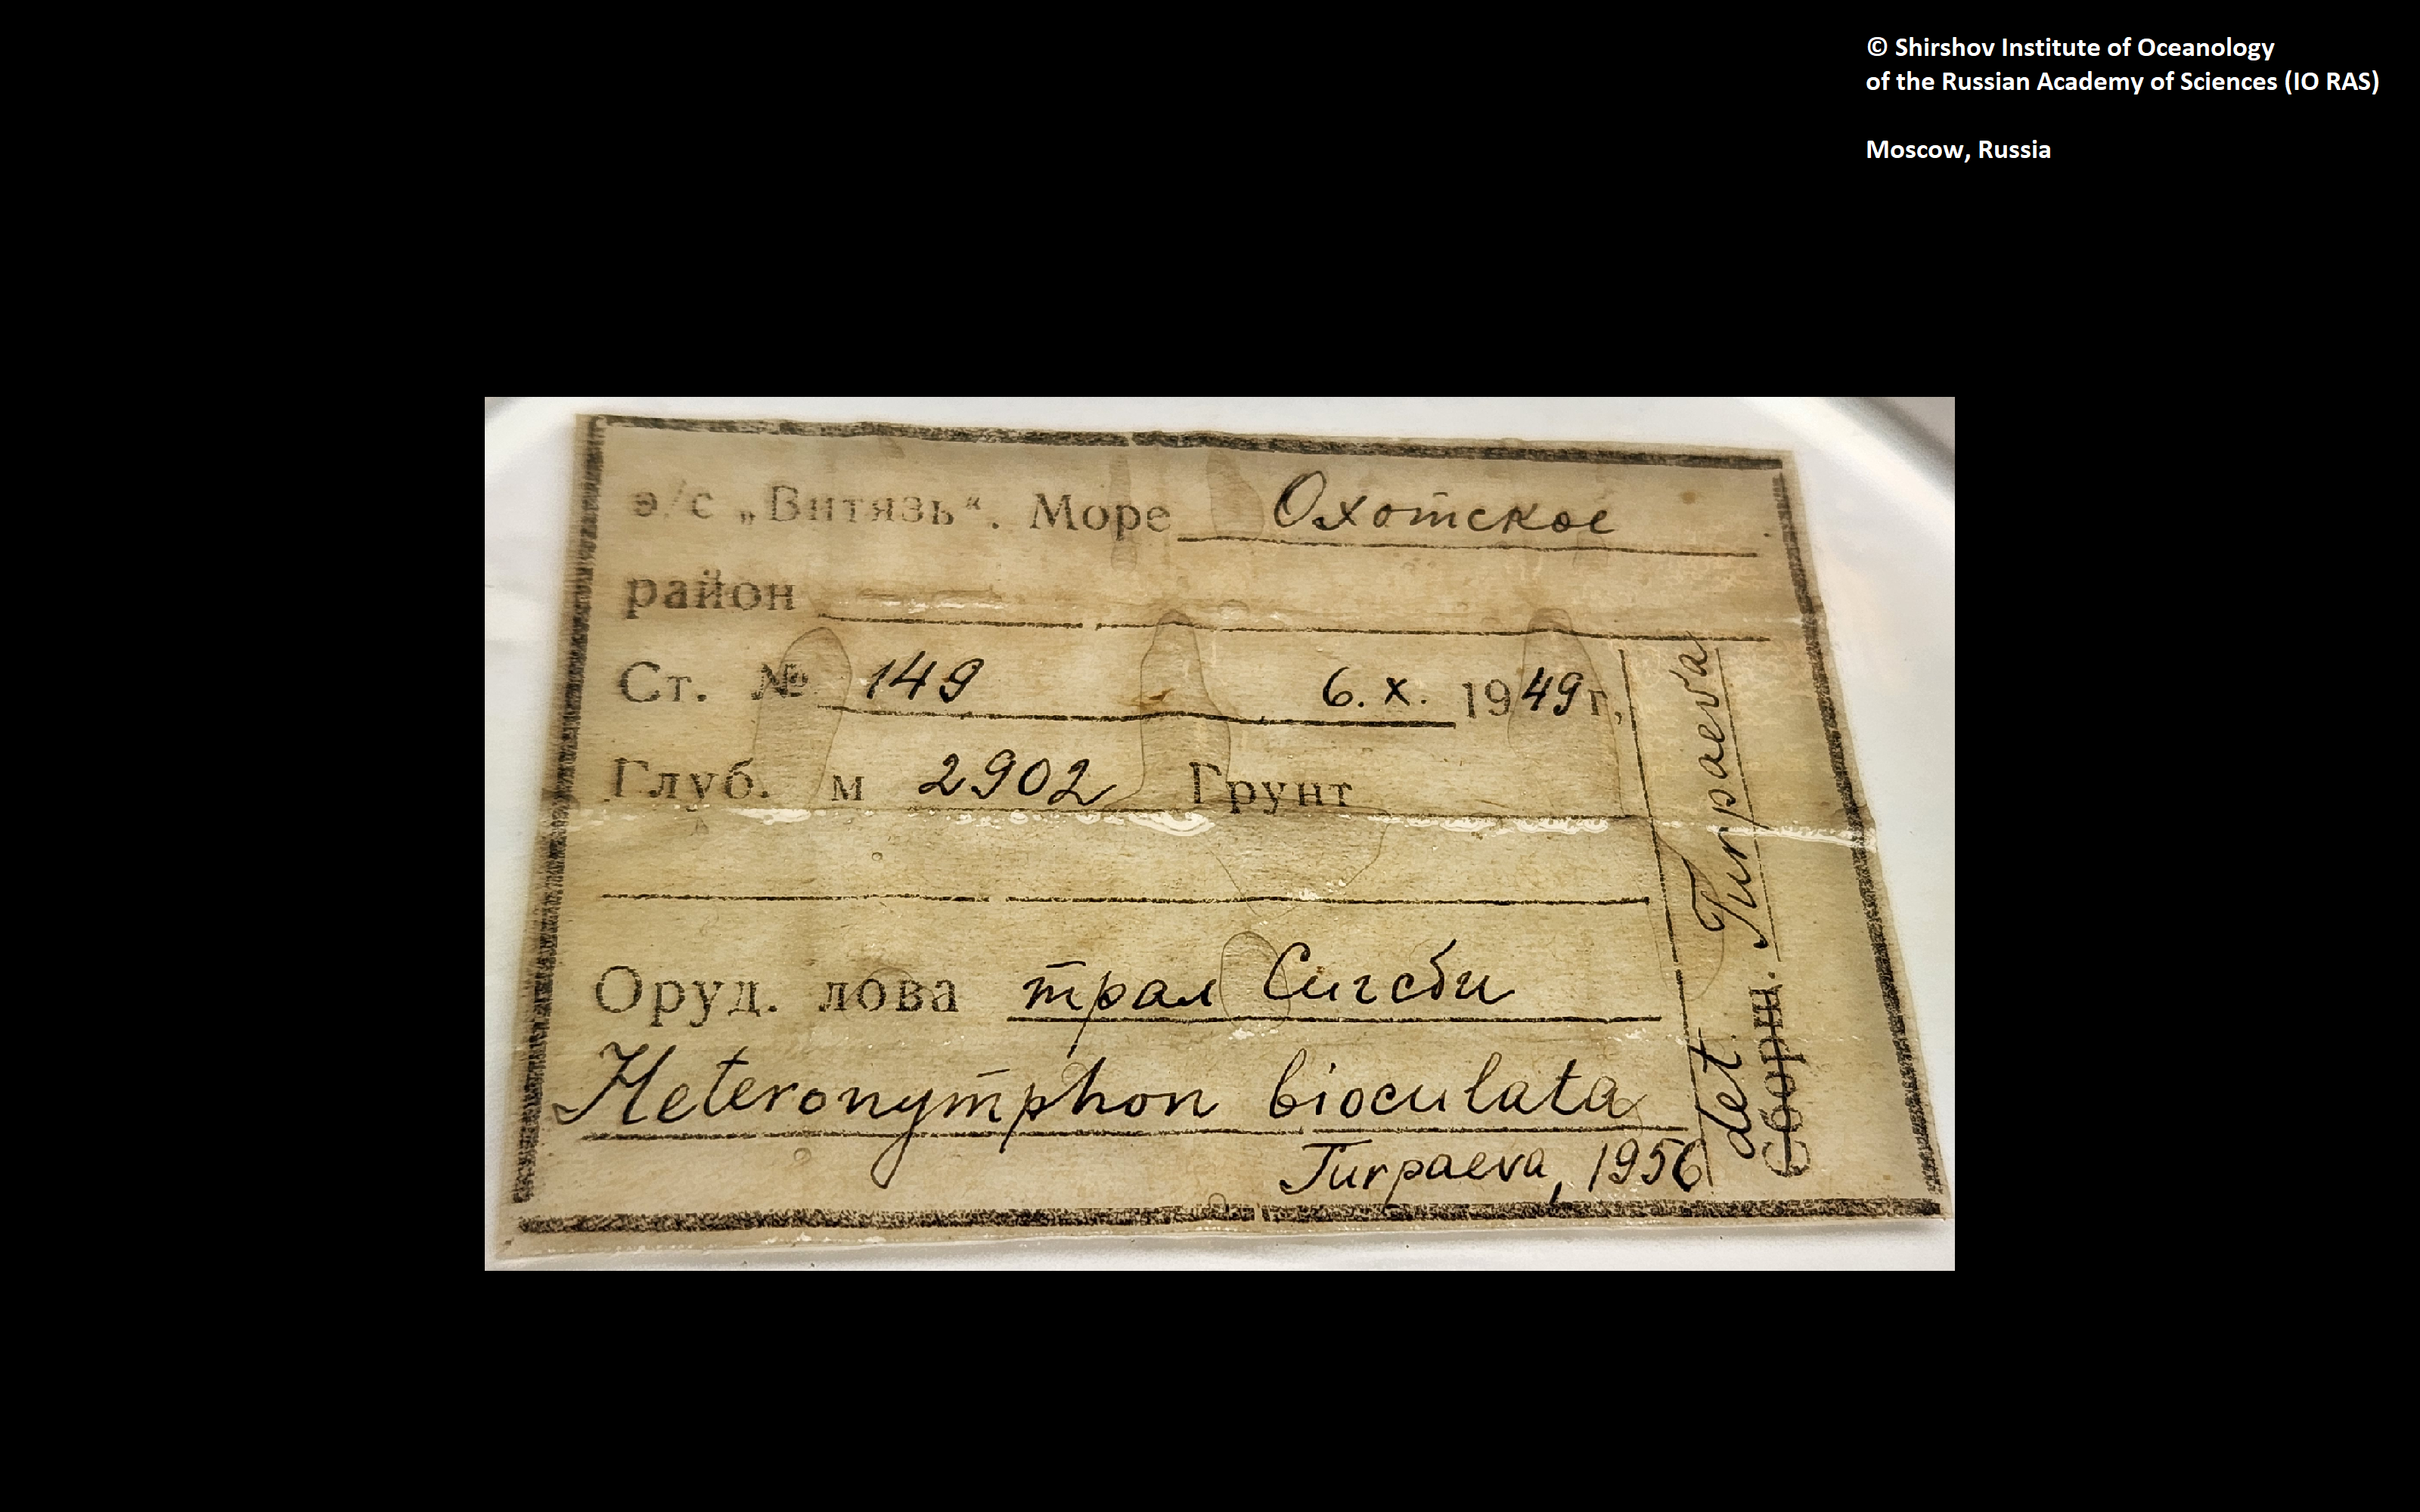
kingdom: Animalia
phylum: Arthropoda
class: Pycnogonida
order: Pantopoda
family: Nymphonidae
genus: Heteronymphon
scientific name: Heteronymphon bioculatum
